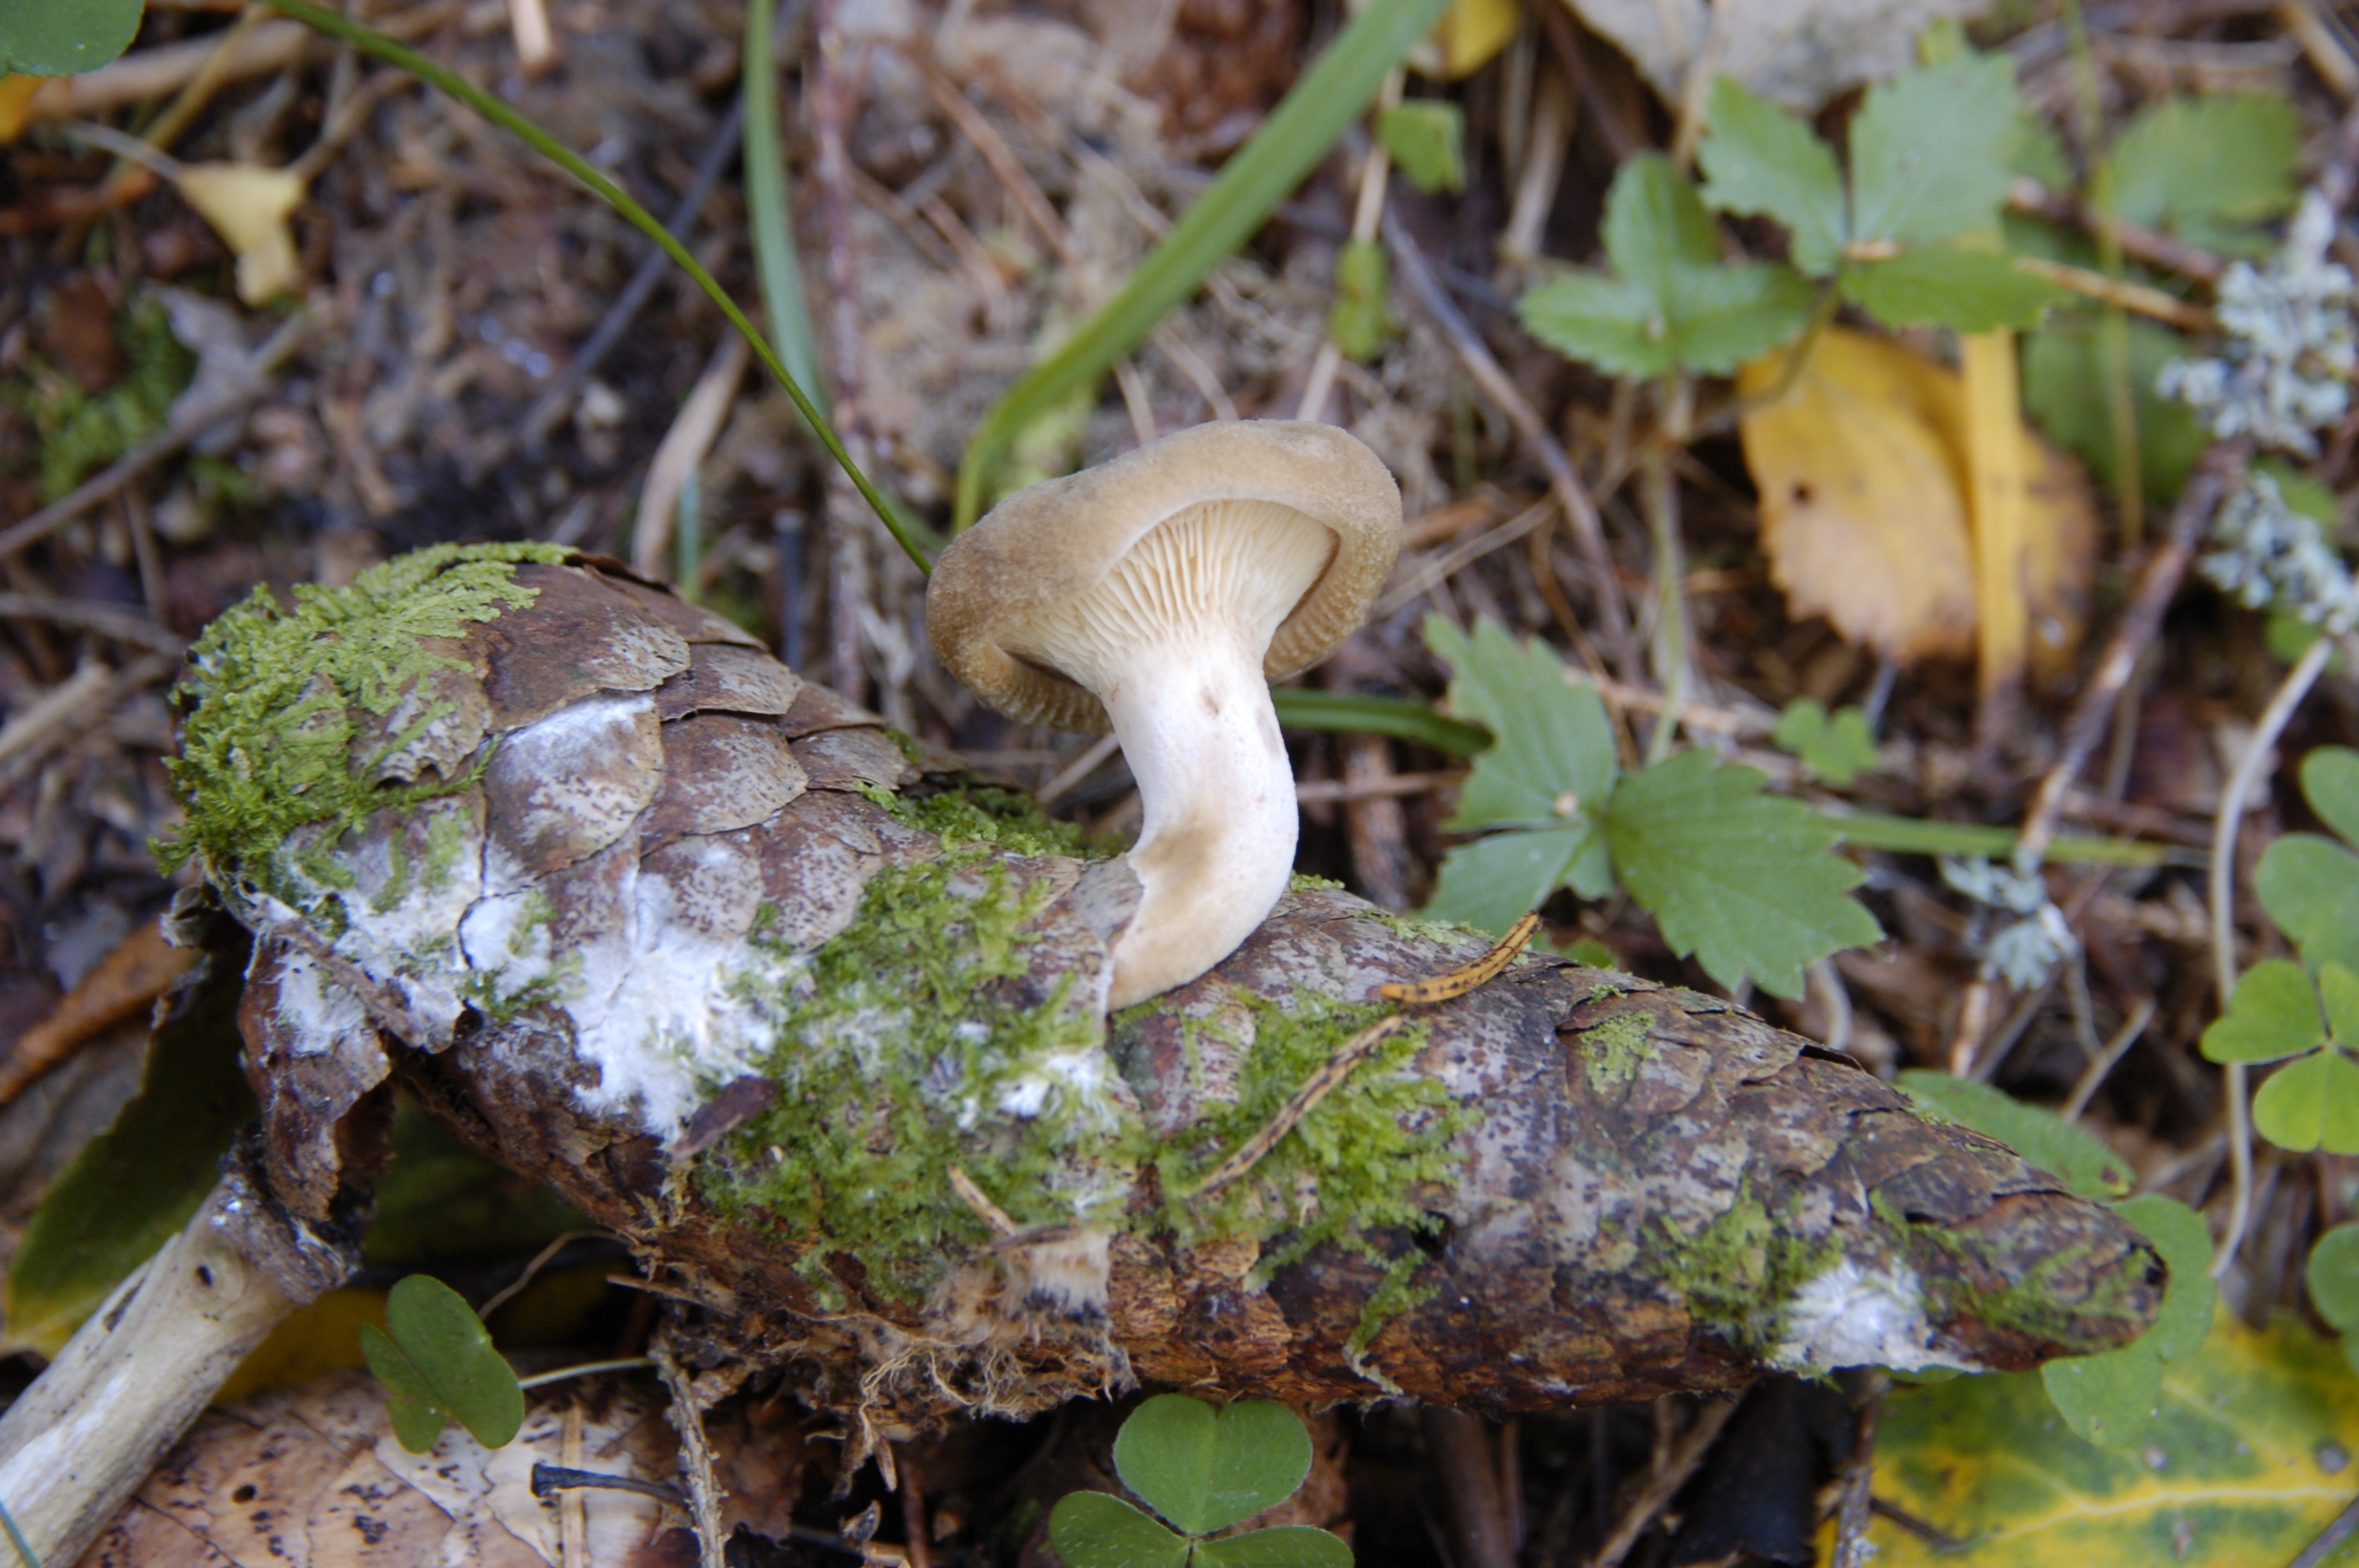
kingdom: Fungi
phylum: Basidiomycota
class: Agaricomycetes
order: Boletales
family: Paxillaceae
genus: Paxillus
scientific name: Paxillus involutus
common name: Brown roll rim
